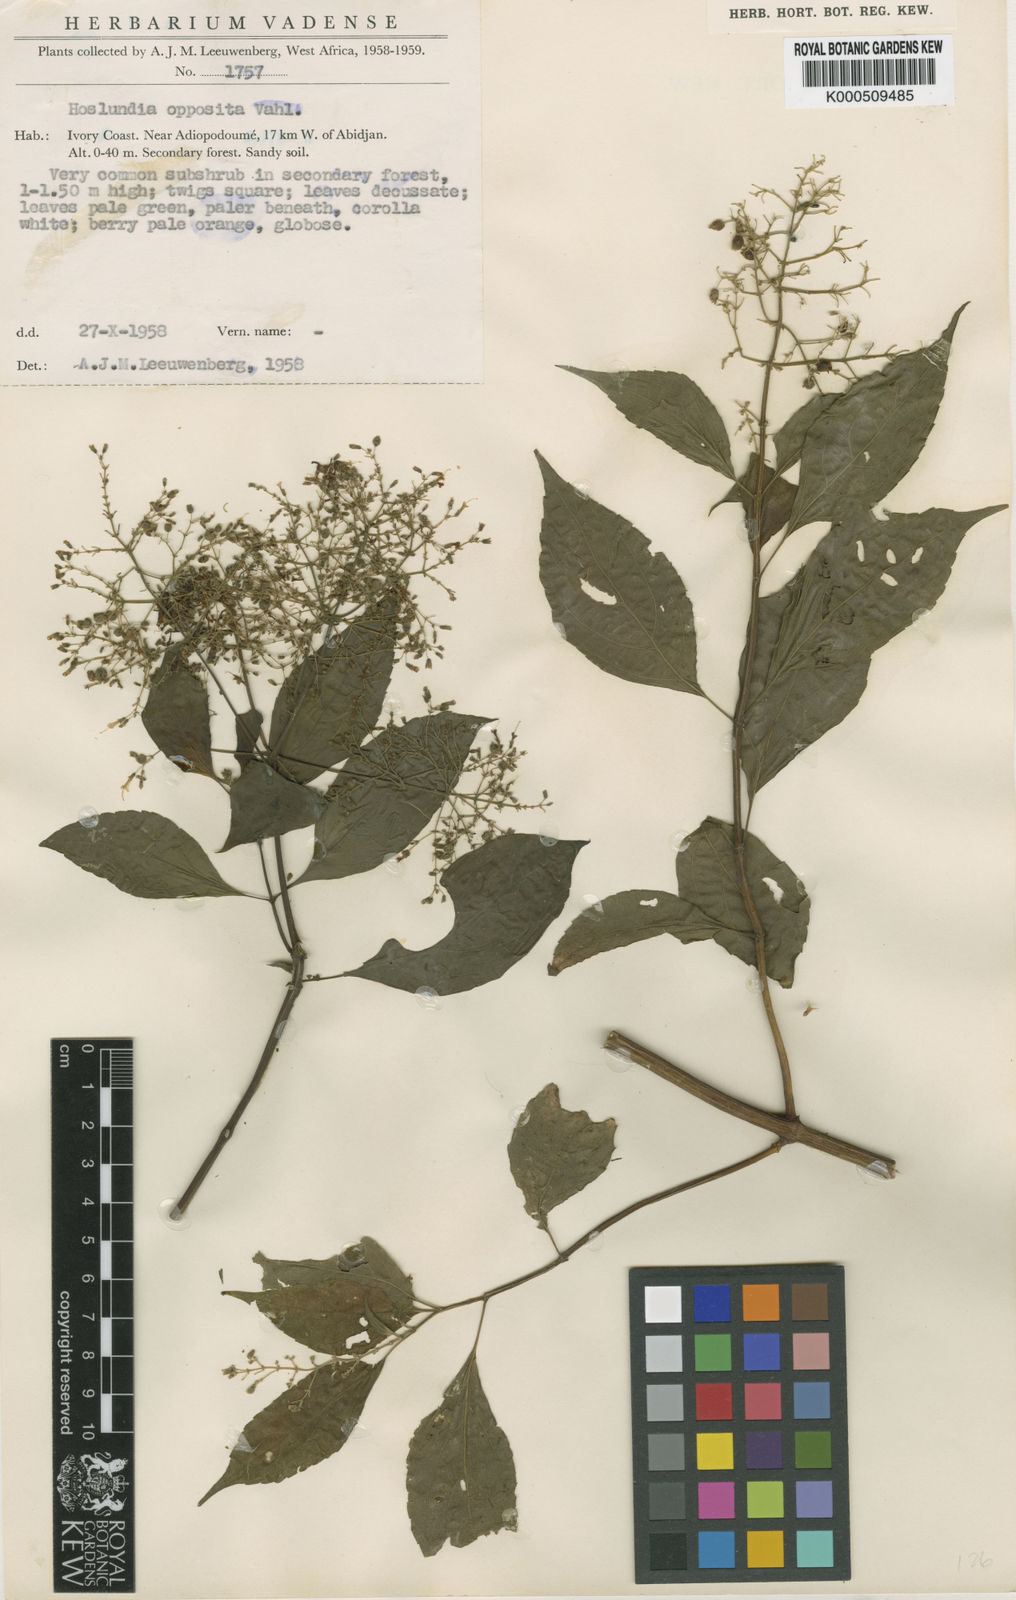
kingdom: Plantae
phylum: Tracheophyta
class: Magnoliopsida
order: Lamiales
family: Lamiaceae
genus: Hoslundia
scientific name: Hoslundia opposita
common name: Kamyuye
